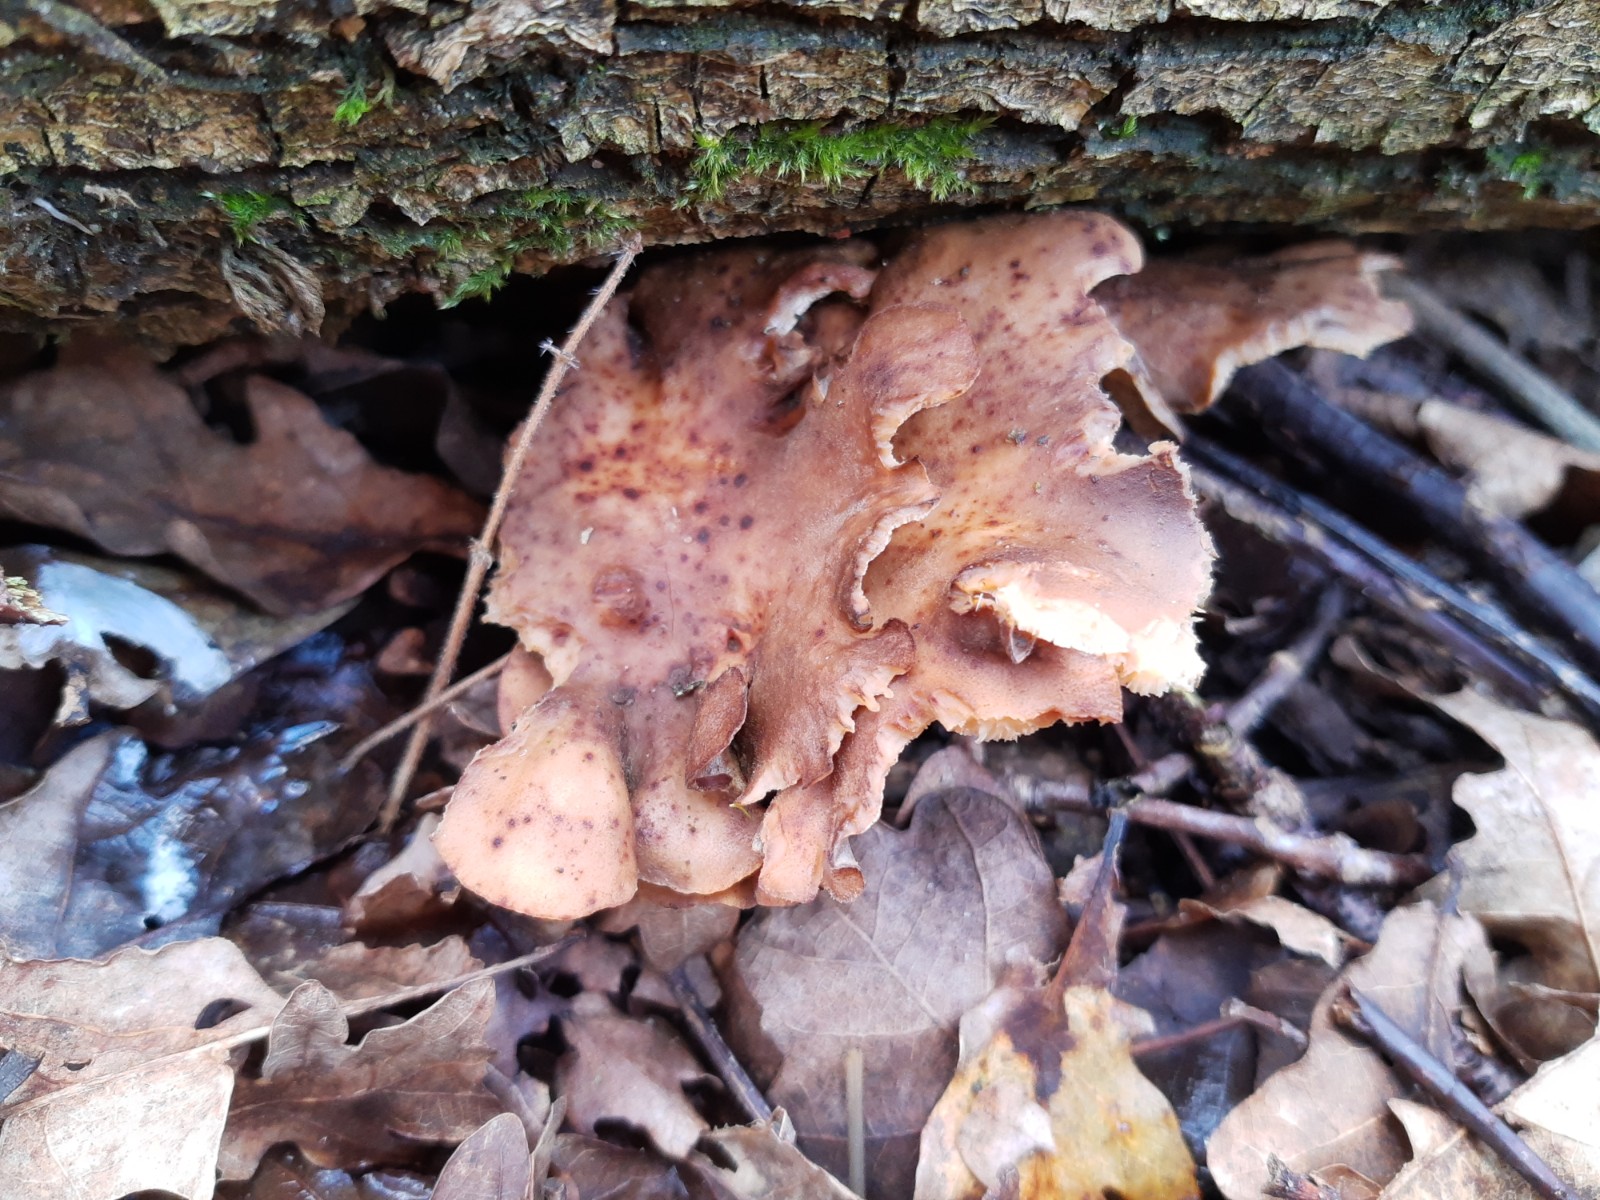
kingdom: Fungi
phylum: Basidiomycota
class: Agaricomycetes
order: Polyporales
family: Polyporaceae
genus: Lentinus
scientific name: Lentinus brumalis
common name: vinter-stilkporesvamp
